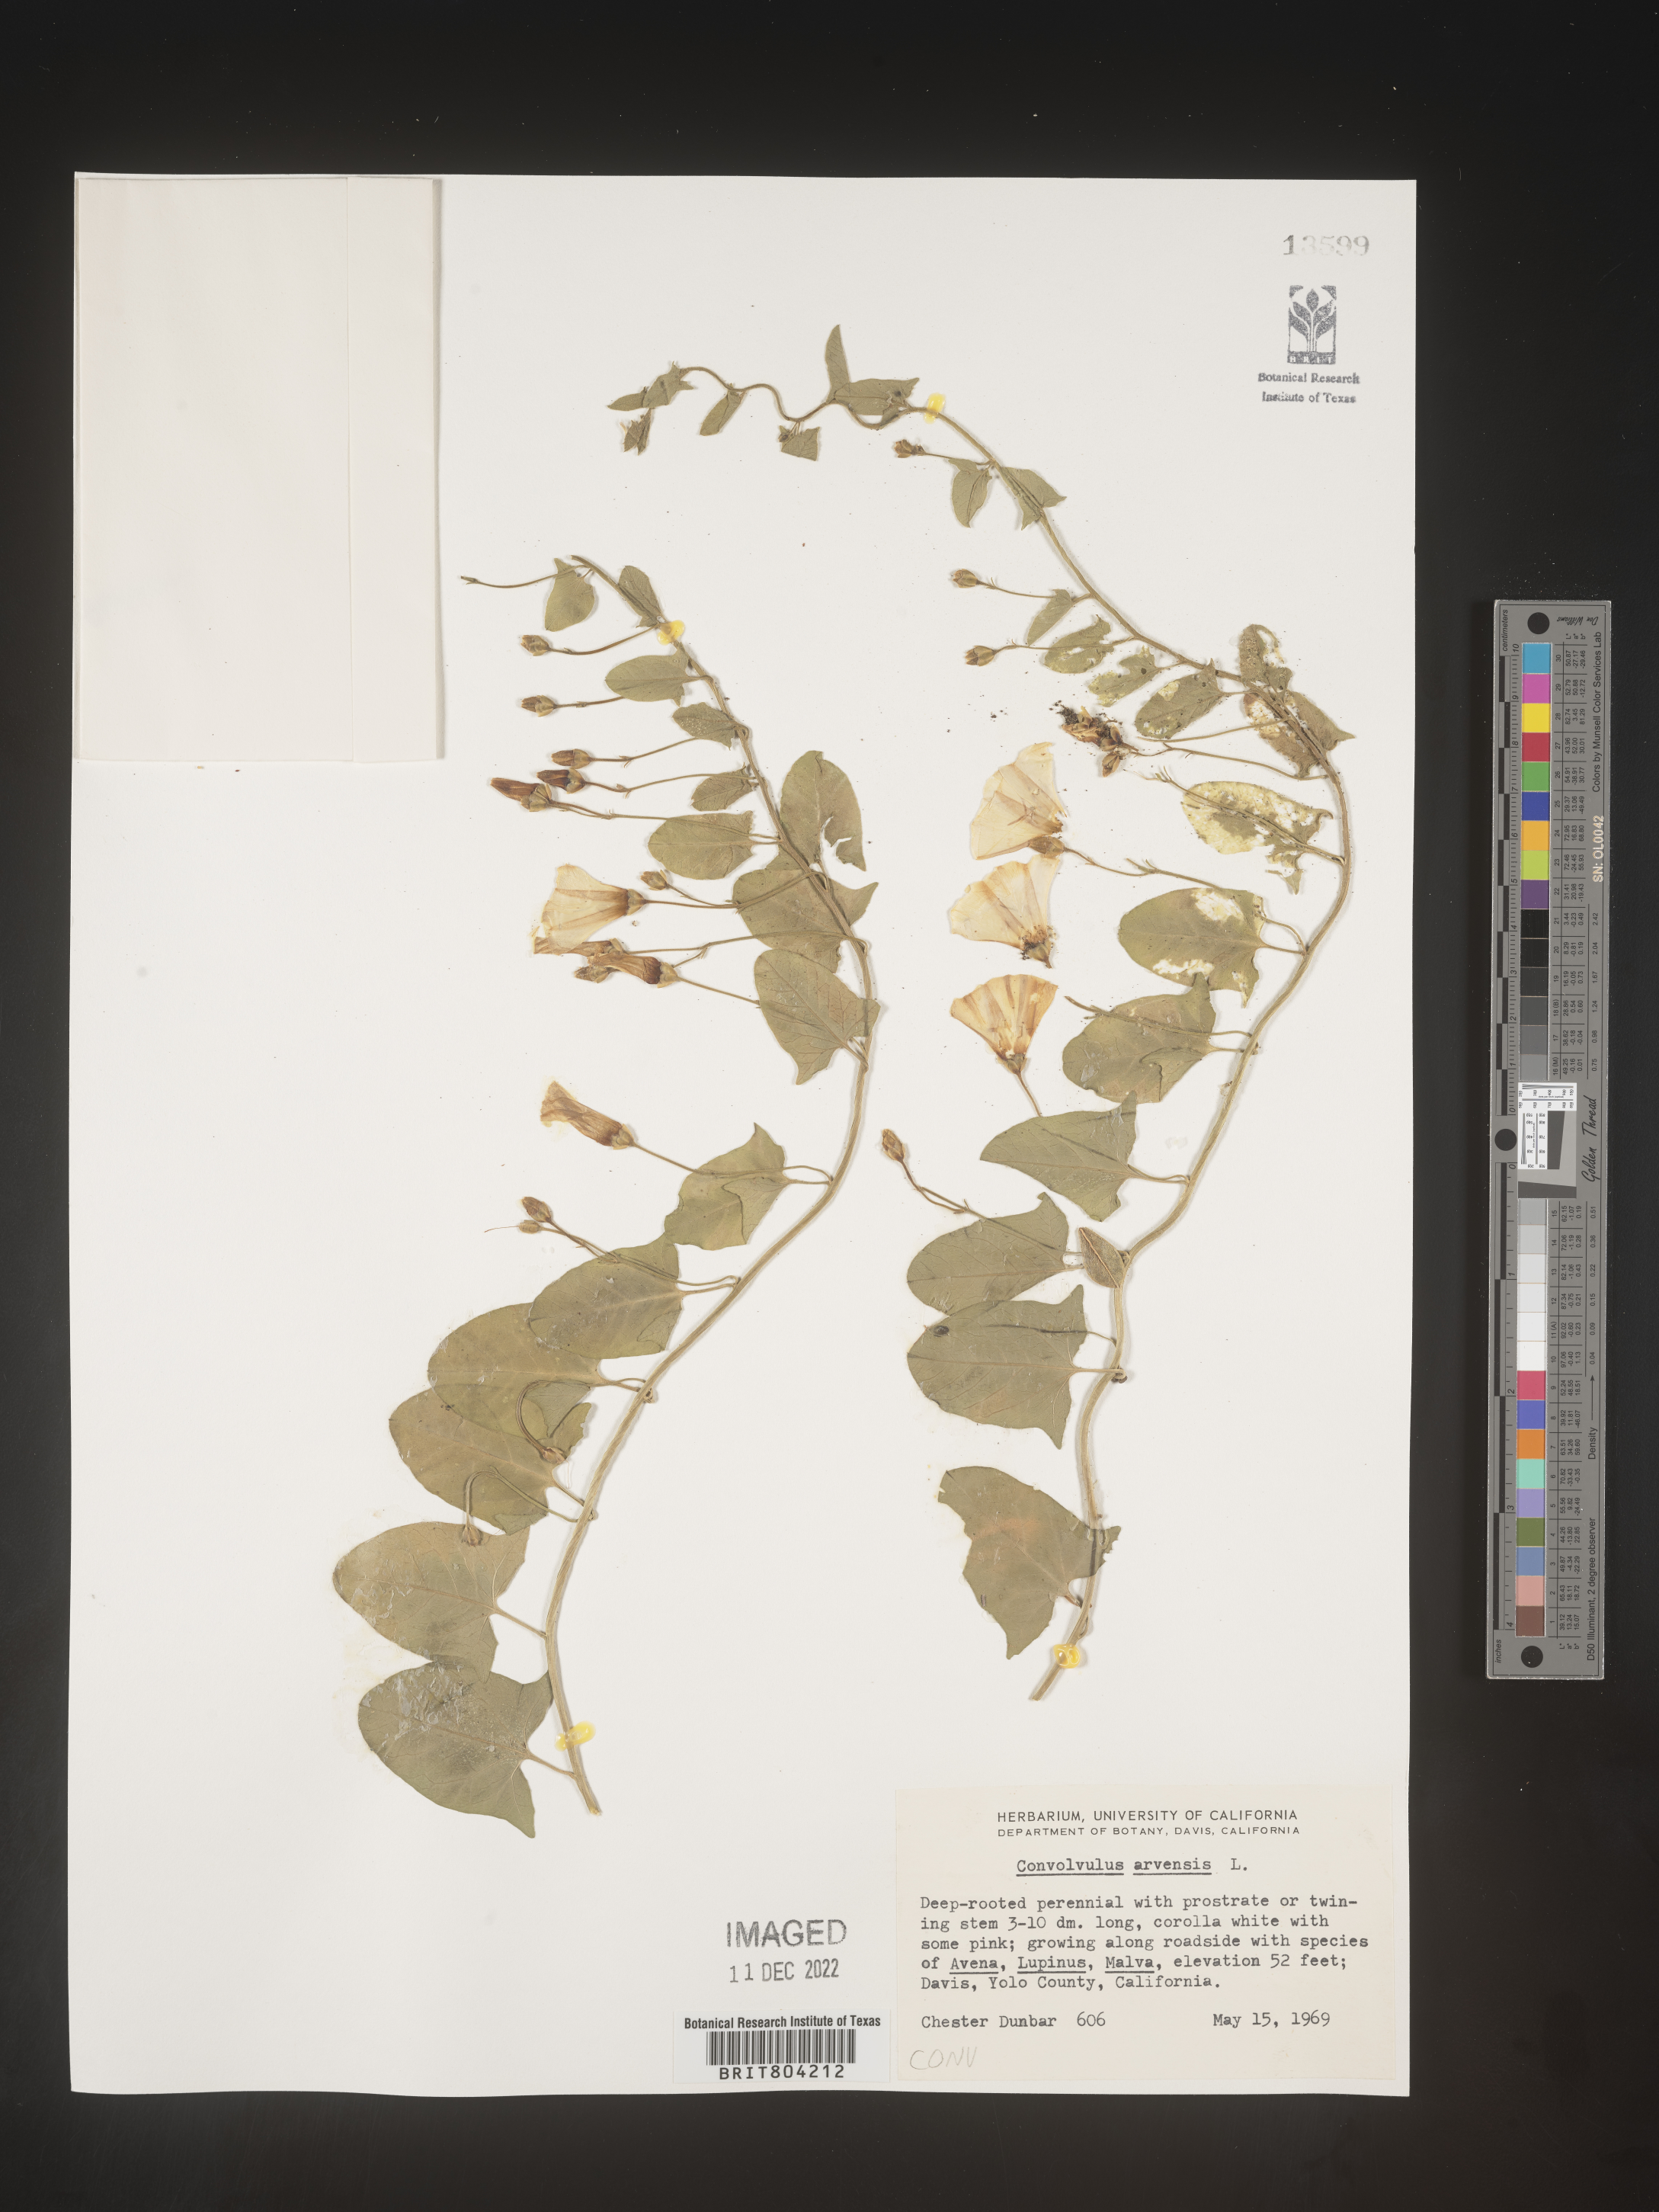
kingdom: Plantae
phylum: Tracheophyta
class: Magnoliopsida
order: Solanales
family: Convolvulaceae
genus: Convolvulus
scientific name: Convolvulus arvensis
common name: Field bindweed
